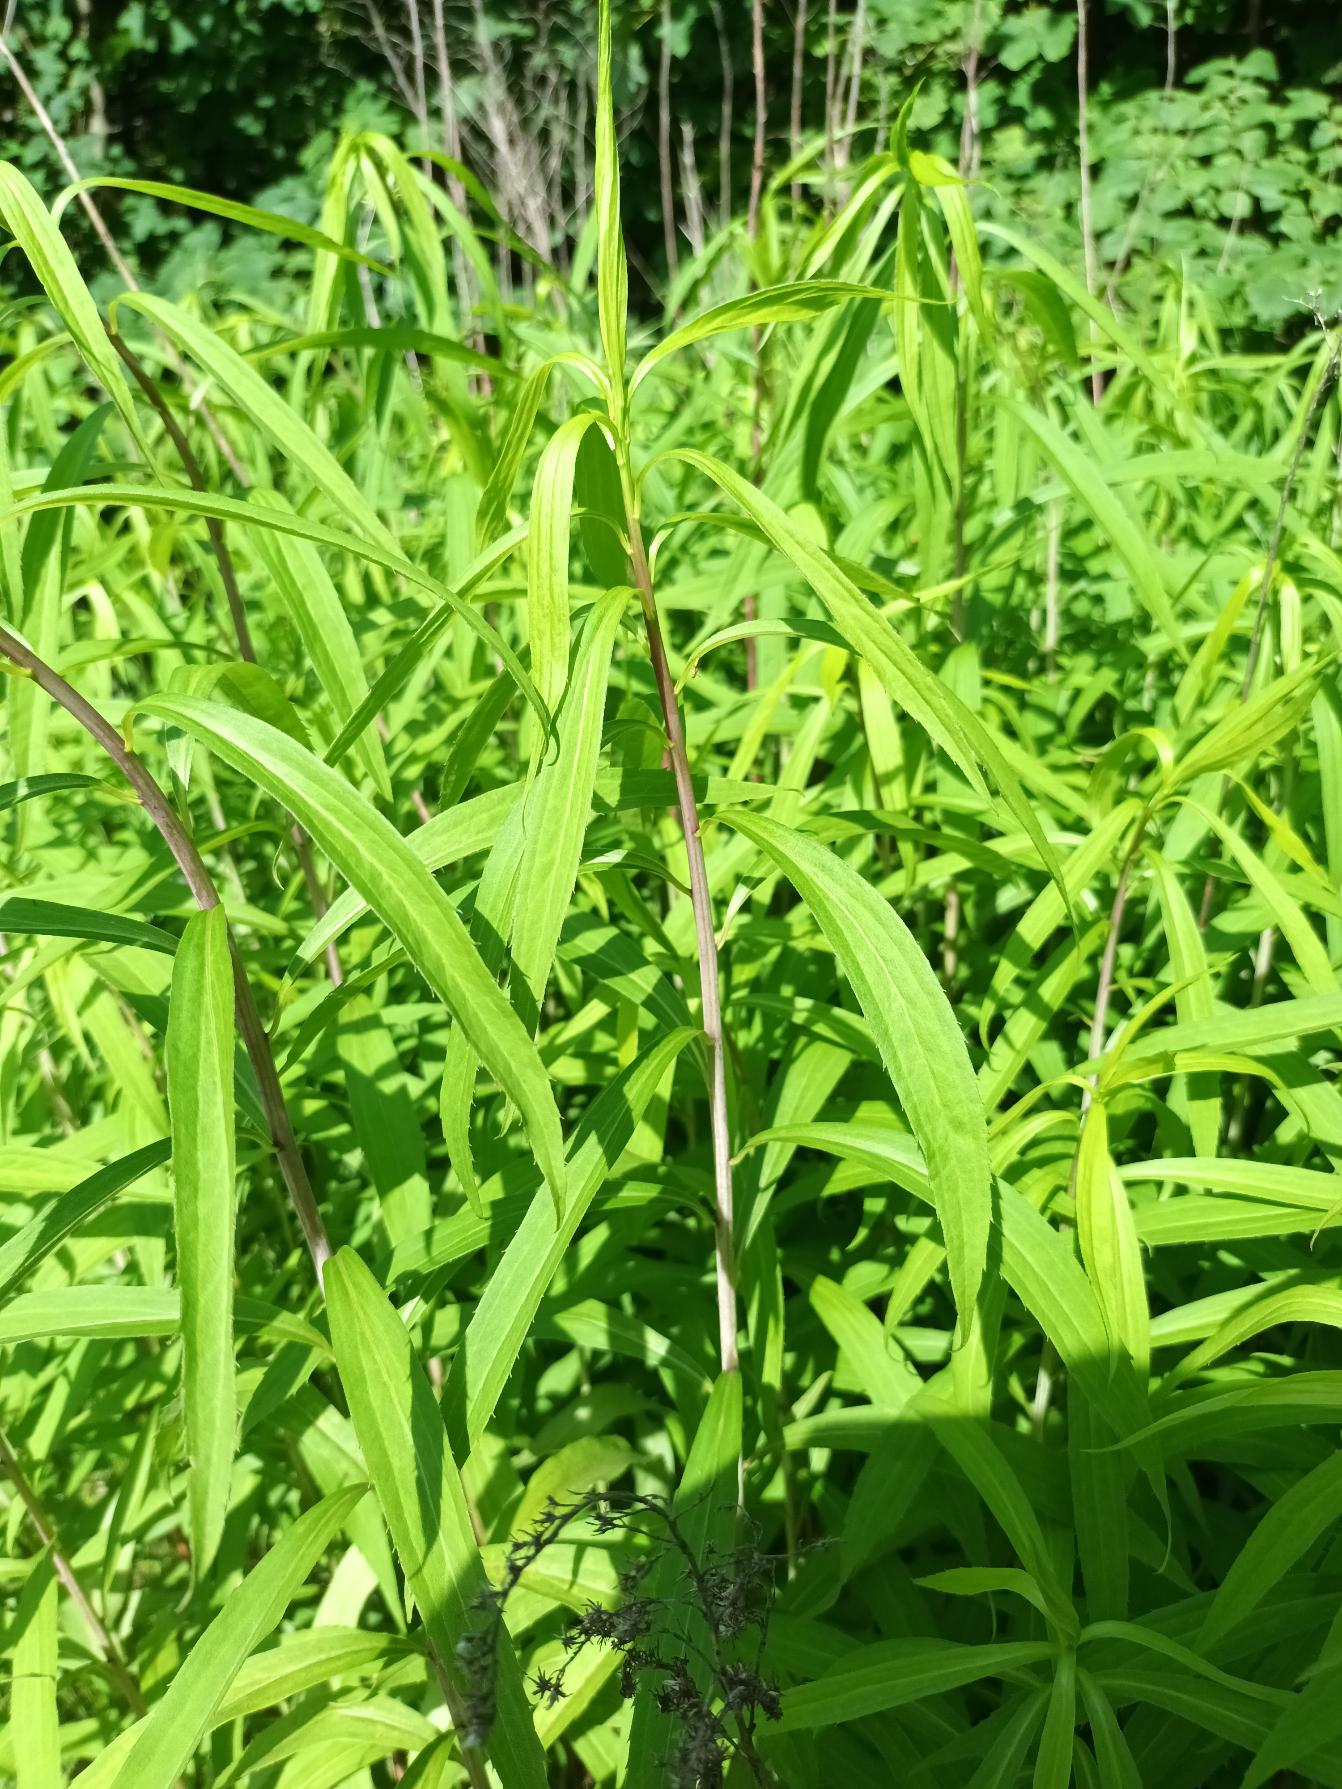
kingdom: Plantae
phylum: Tracheophyta
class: Magnoliopsida
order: Asterales
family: Asteraceae
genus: Solidago
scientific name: Solidago gigantea
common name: Sildig gyldenris
